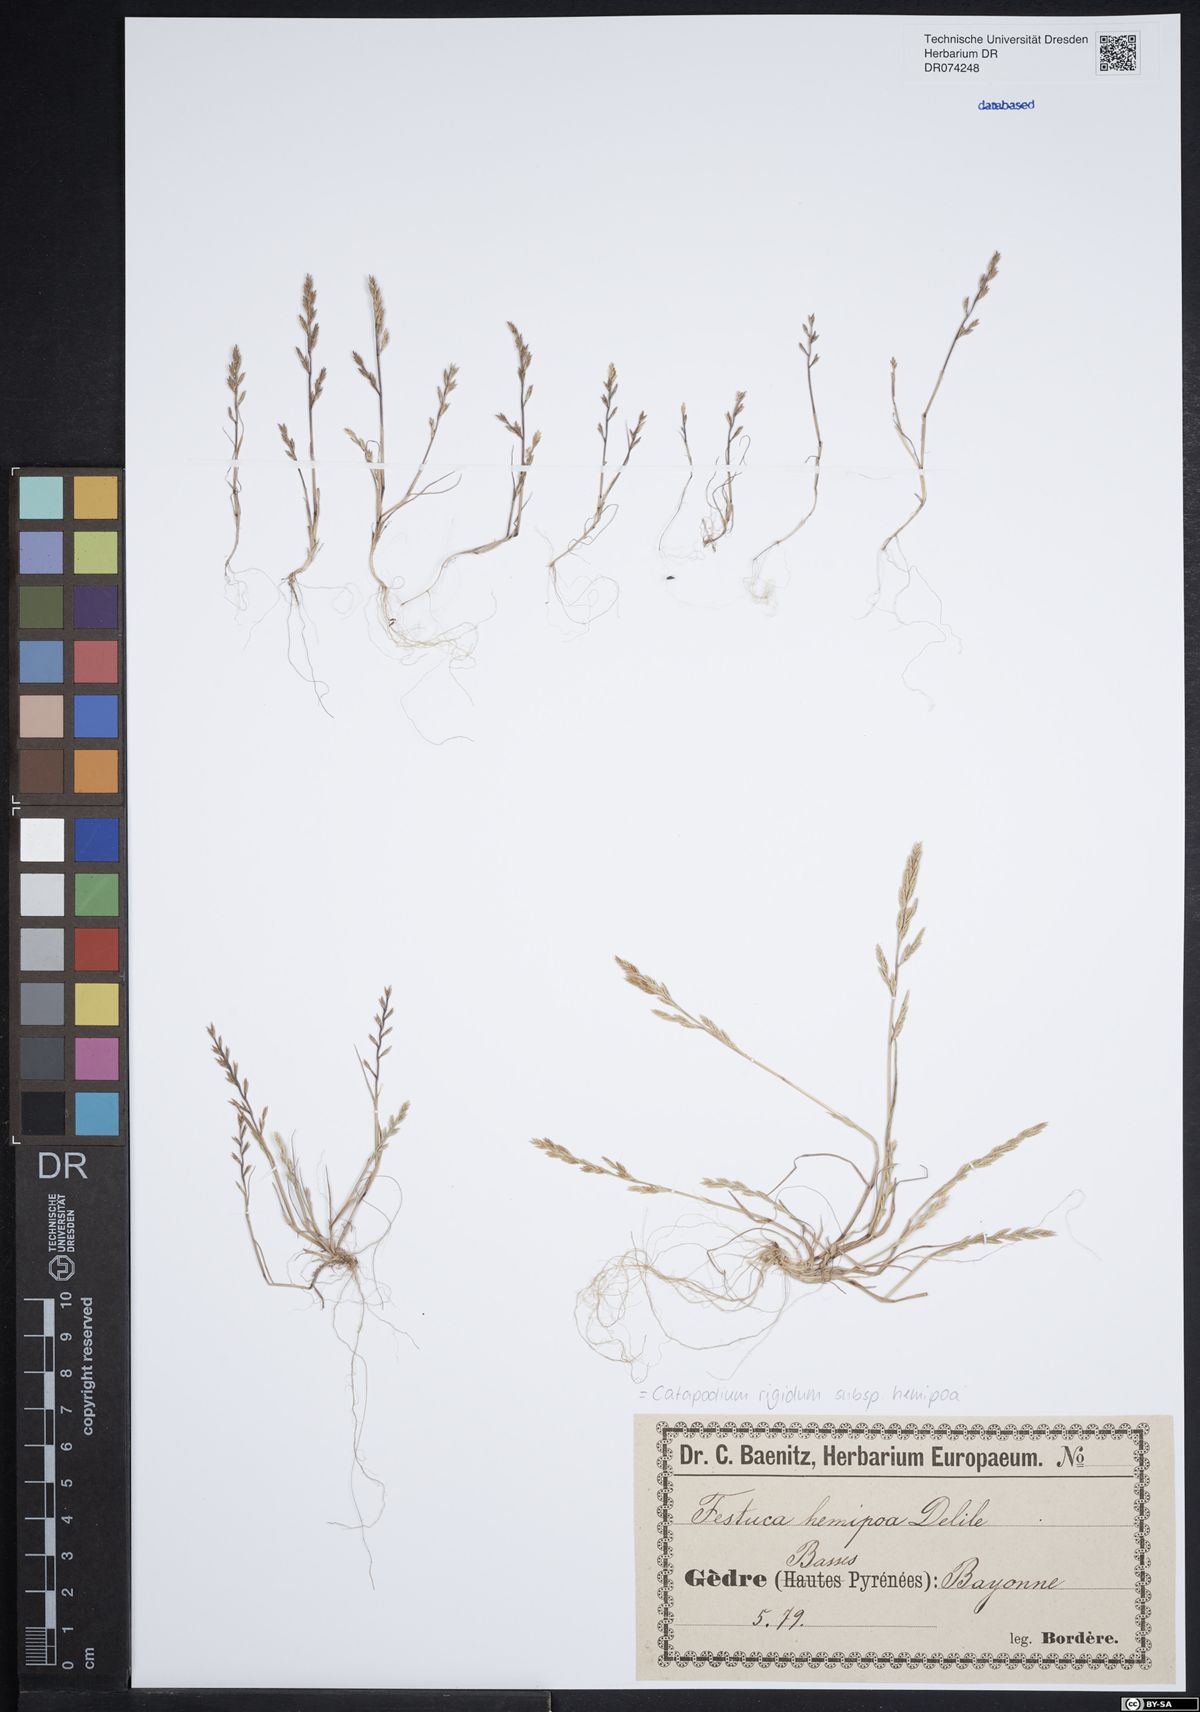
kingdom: Plantae
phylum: Tracheophyta
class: Liliopsida
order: Poales
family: Poaceae
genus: Catapodium
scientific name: Catapodium hemipoa
